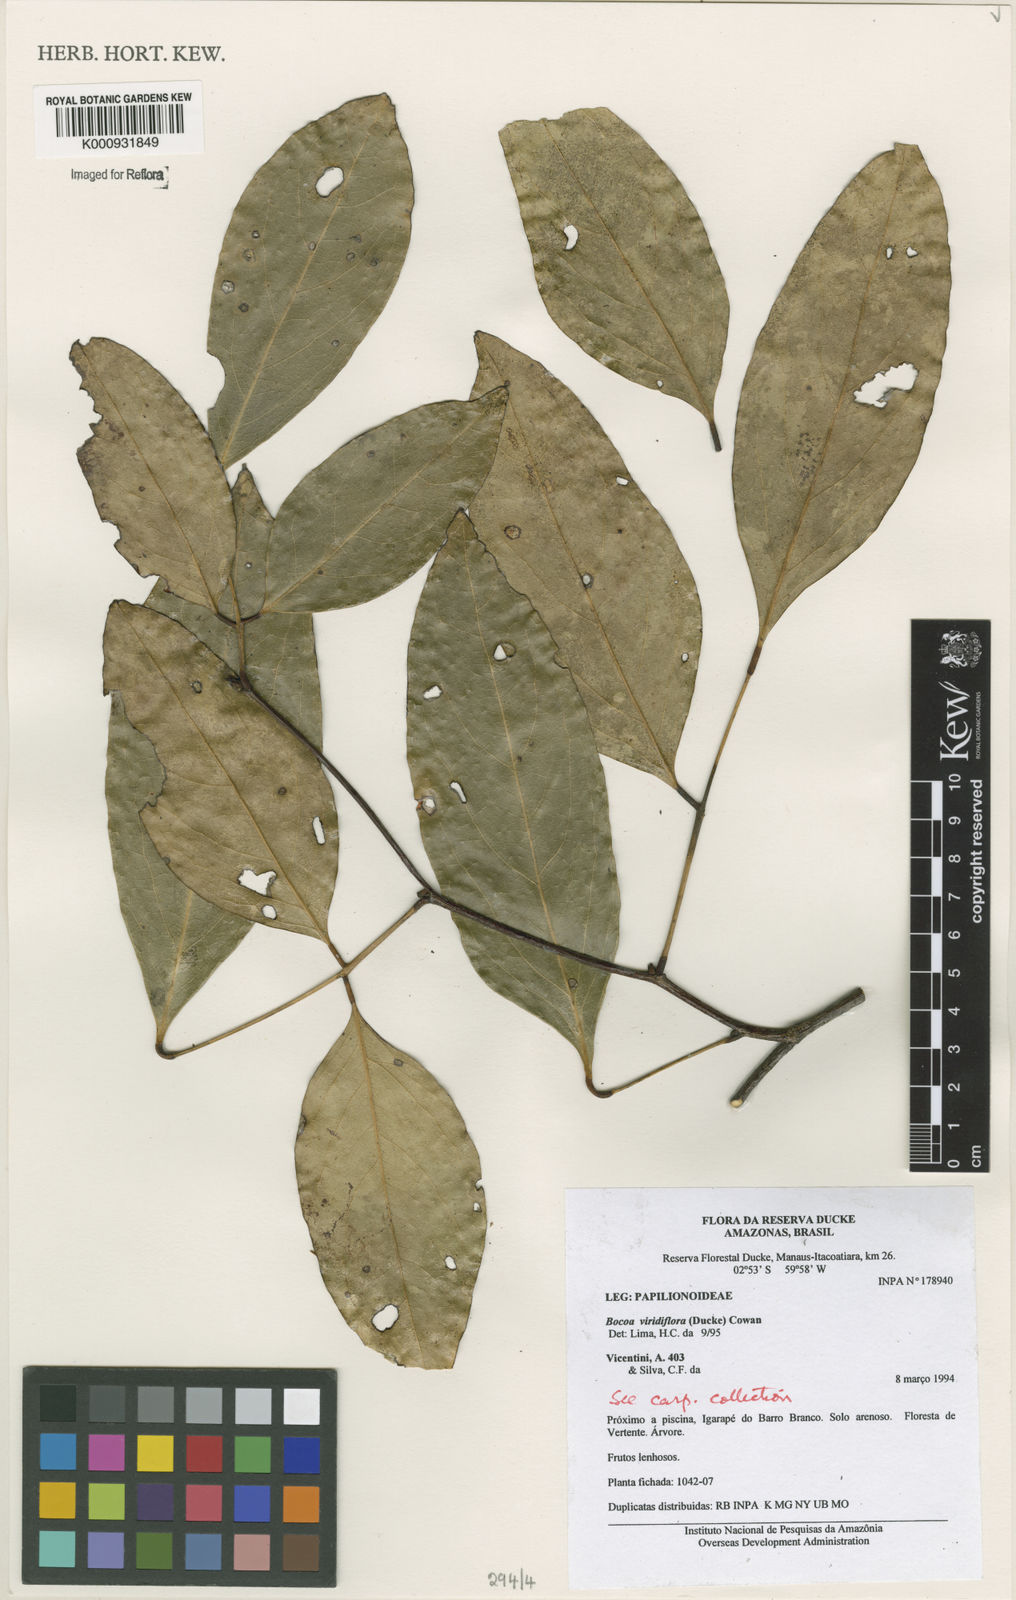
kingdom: Plantae
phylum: Tracheophyta
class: Magnoliopsida
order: Fabales
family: Fabaceae
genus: Bocoa
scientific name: Bocoa viridiflora
